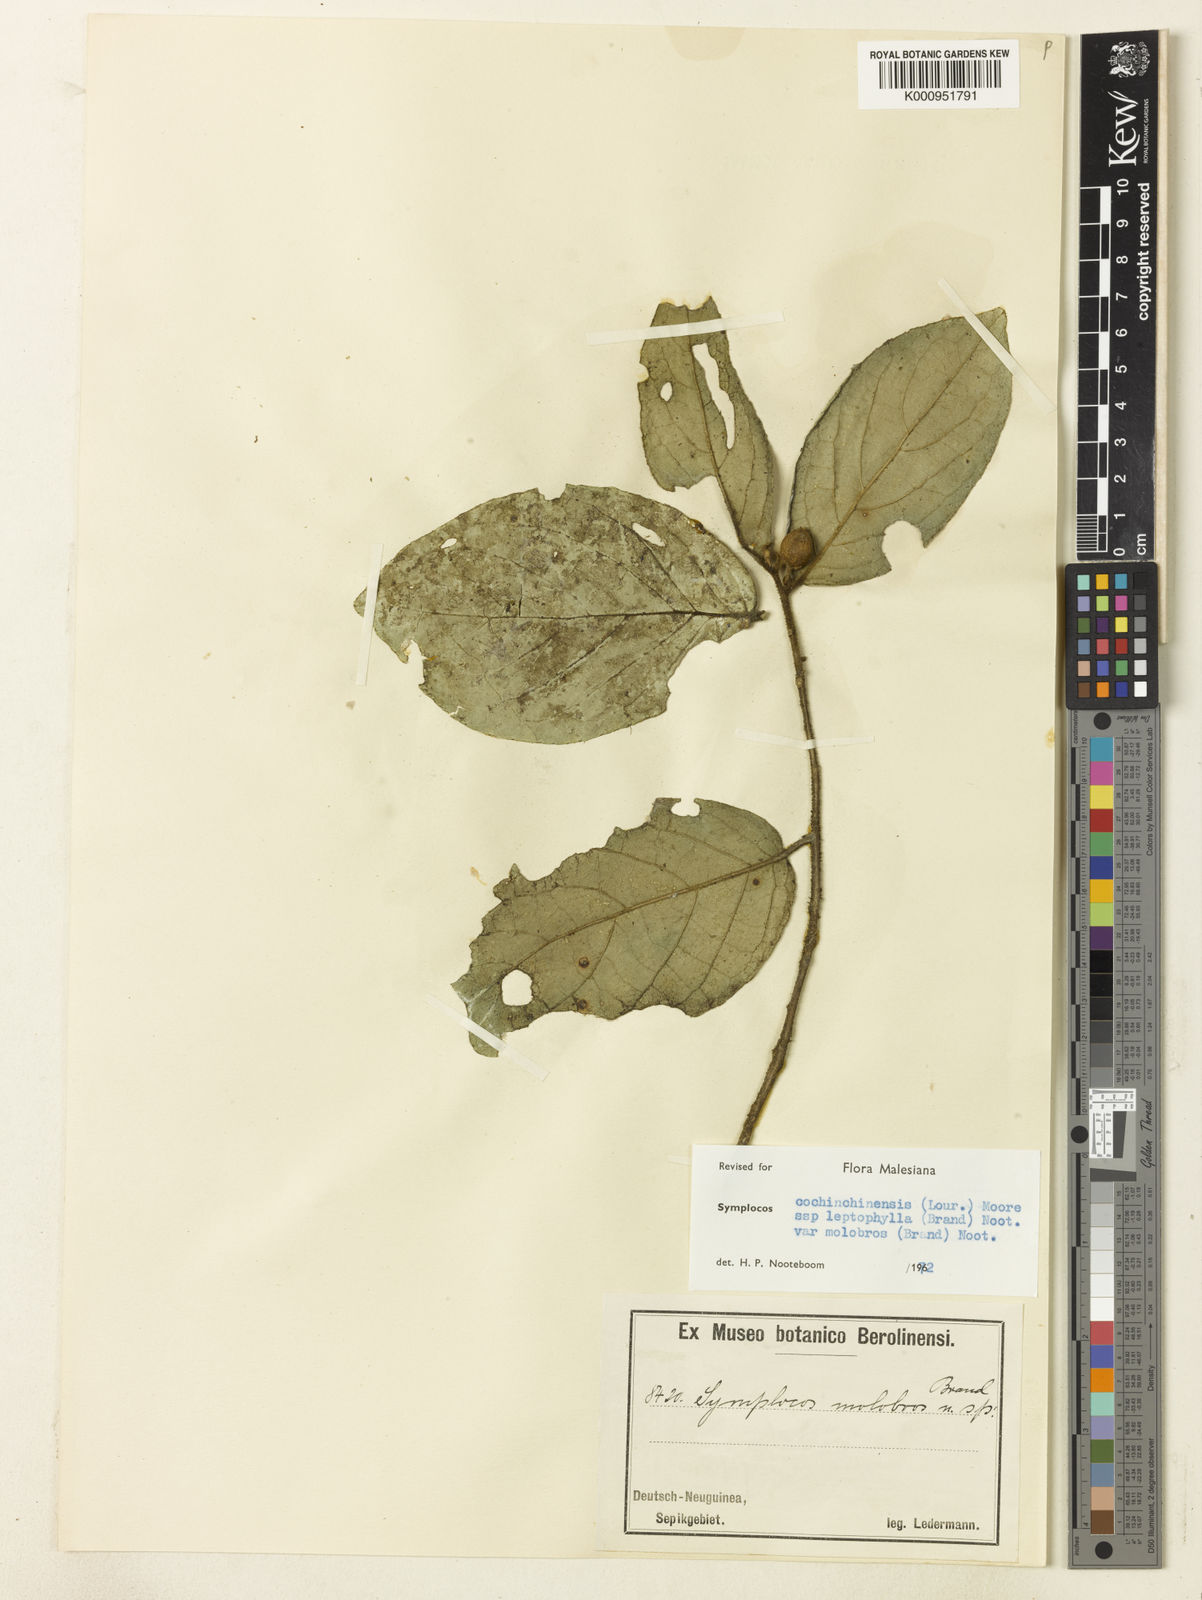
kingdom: Plantae
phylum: Tracheophyta
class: Magnoliopsida
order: Ericales
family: Symplocaceae
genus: Symplocos
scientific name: Symplocos cochinchinensis
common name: Buff hazelwood
